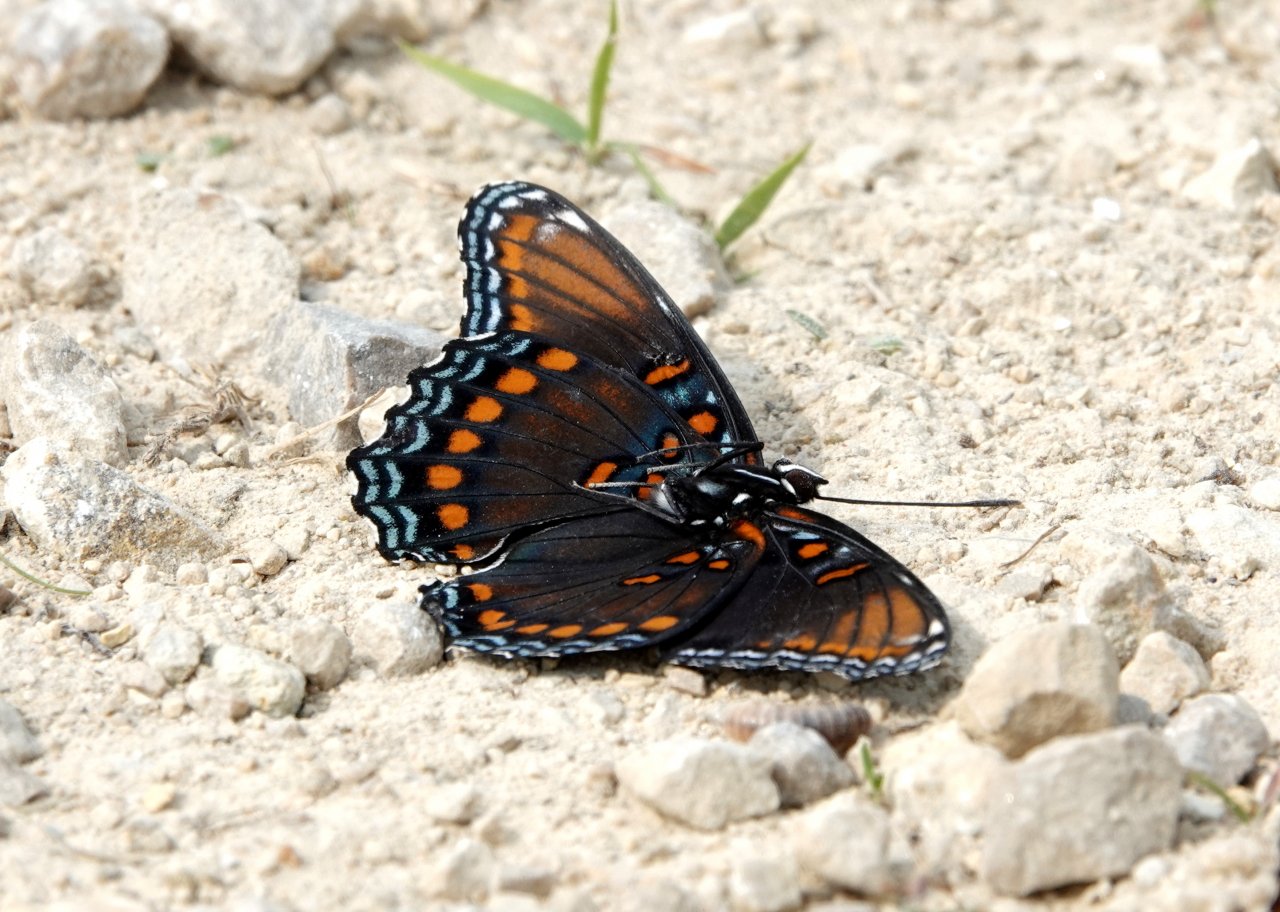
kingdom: Animalia
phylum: Arthropoda
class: Insecta
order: Lepidoptera
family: Nymphalidae
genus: Limenitis
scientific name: Limenitis astyanax
